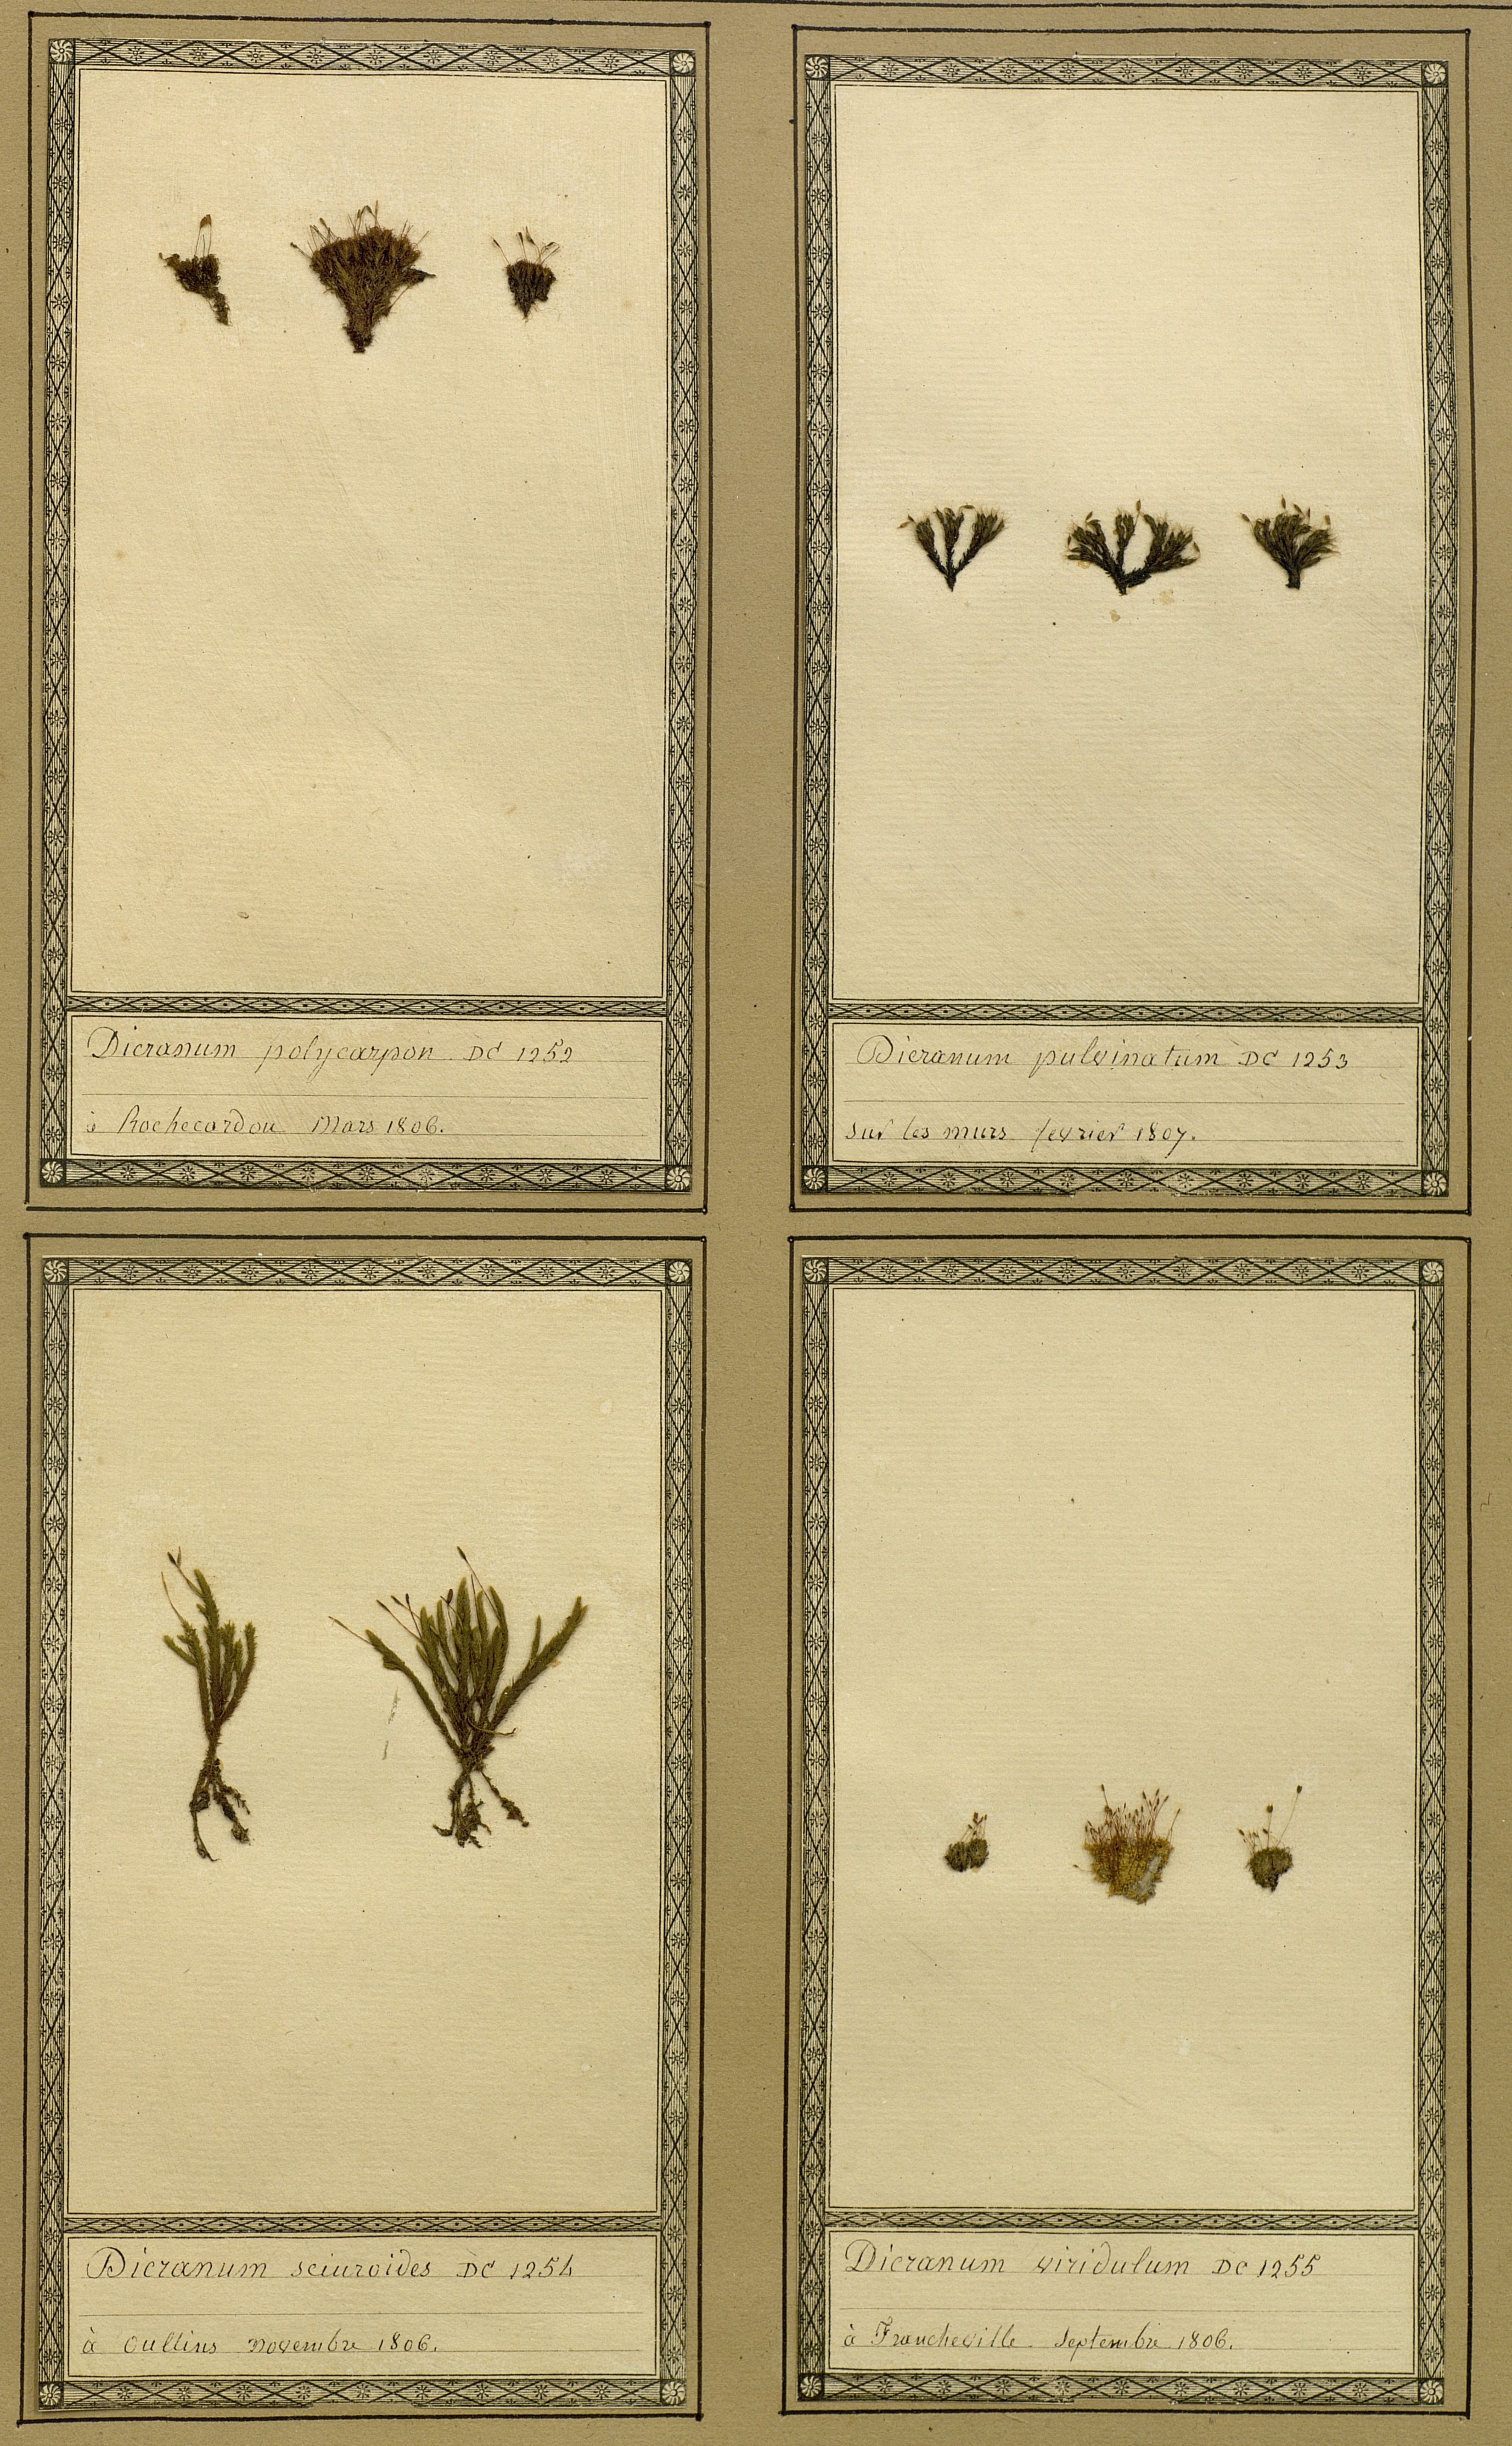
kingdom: Plantae
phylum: Bryophyta
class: Bryopsida
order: Dicranales
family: Fissidentaceae
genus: Fissidens
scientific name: Fissidens viridulus
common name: Green pocket-moss
